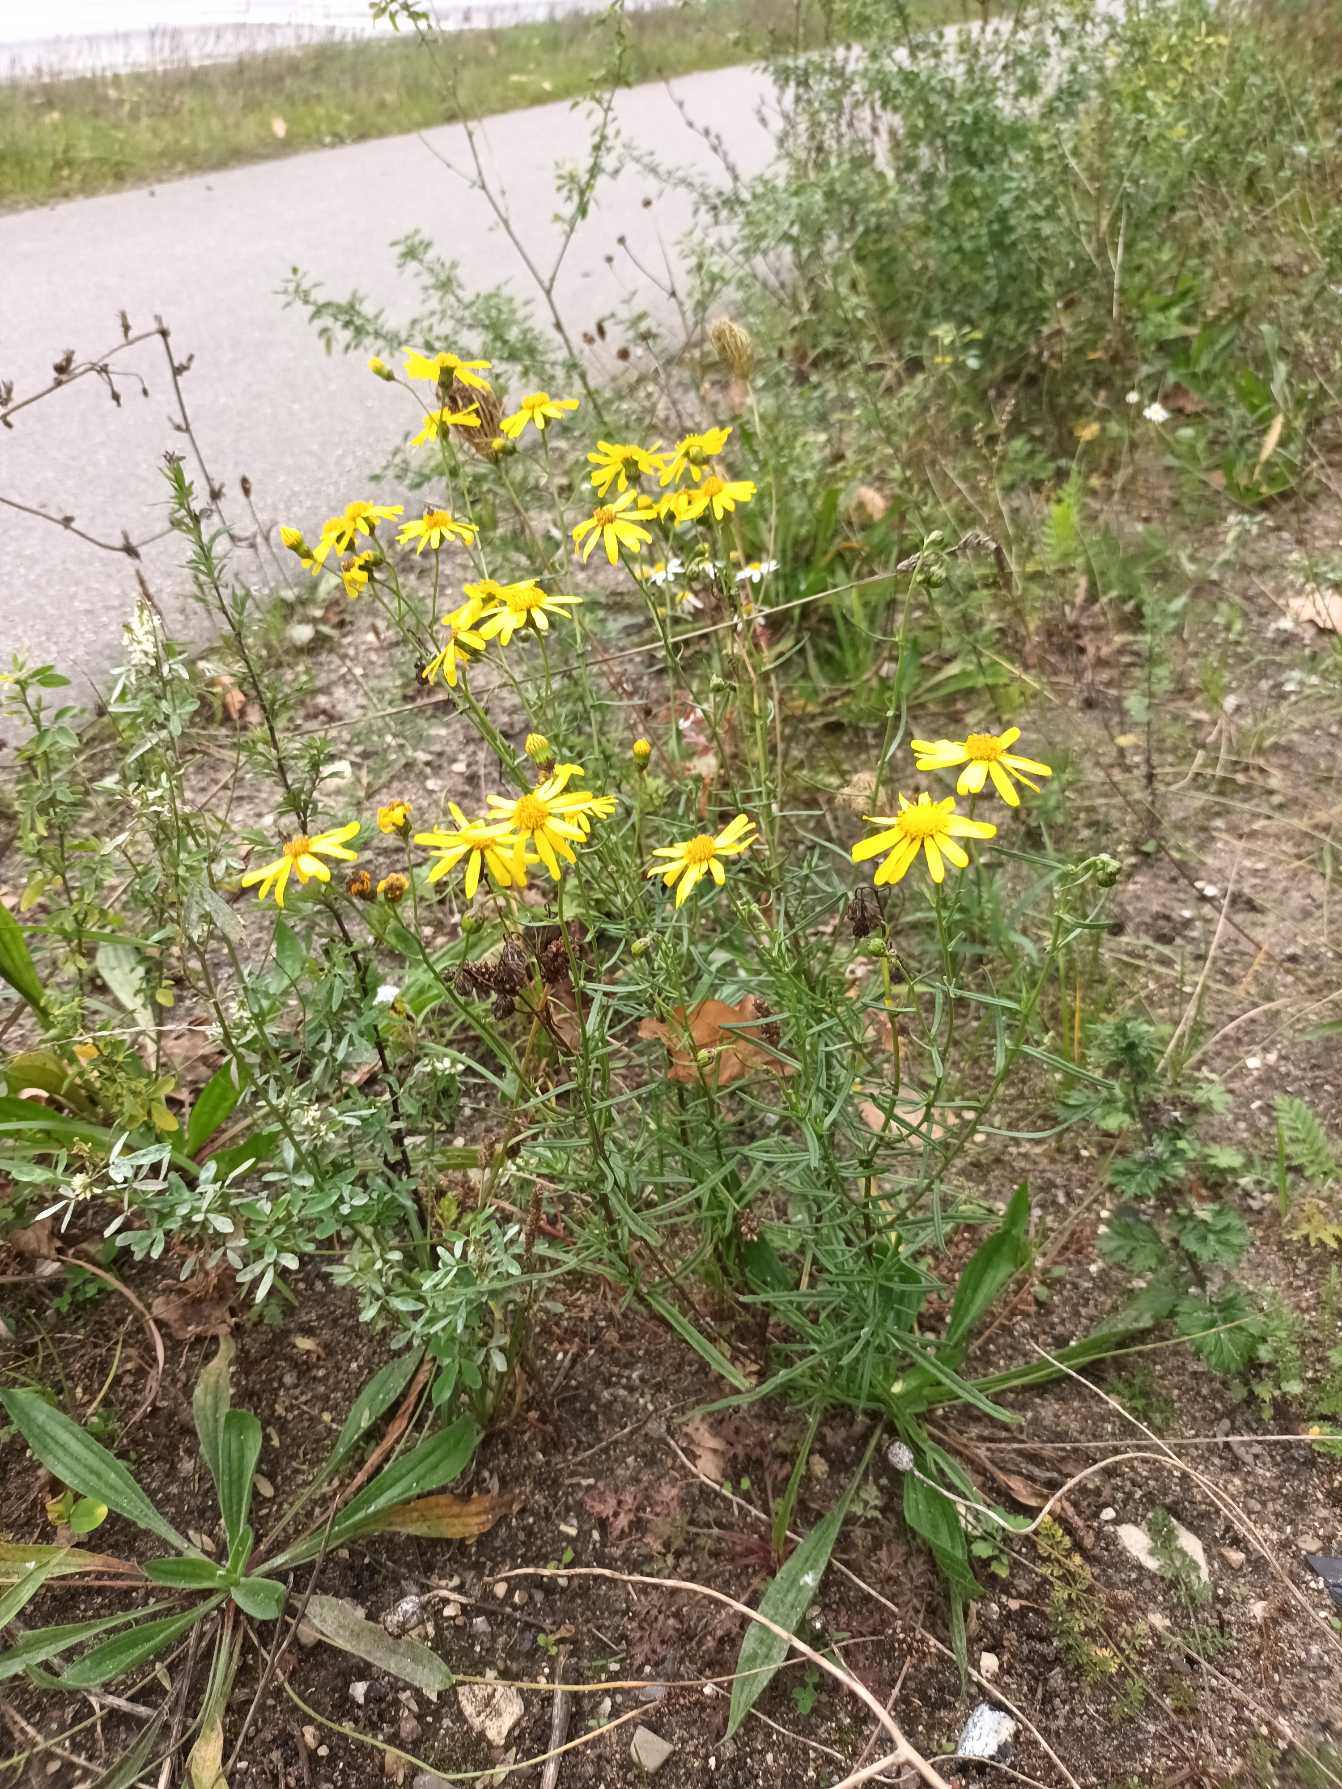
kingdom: Plantae
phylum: Tracheophyta
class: Magnoliopsida
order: Asterales
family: Asteraceae
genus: Senecio
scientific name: Senecio inaequidens
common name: Smalbladet brandbæger
